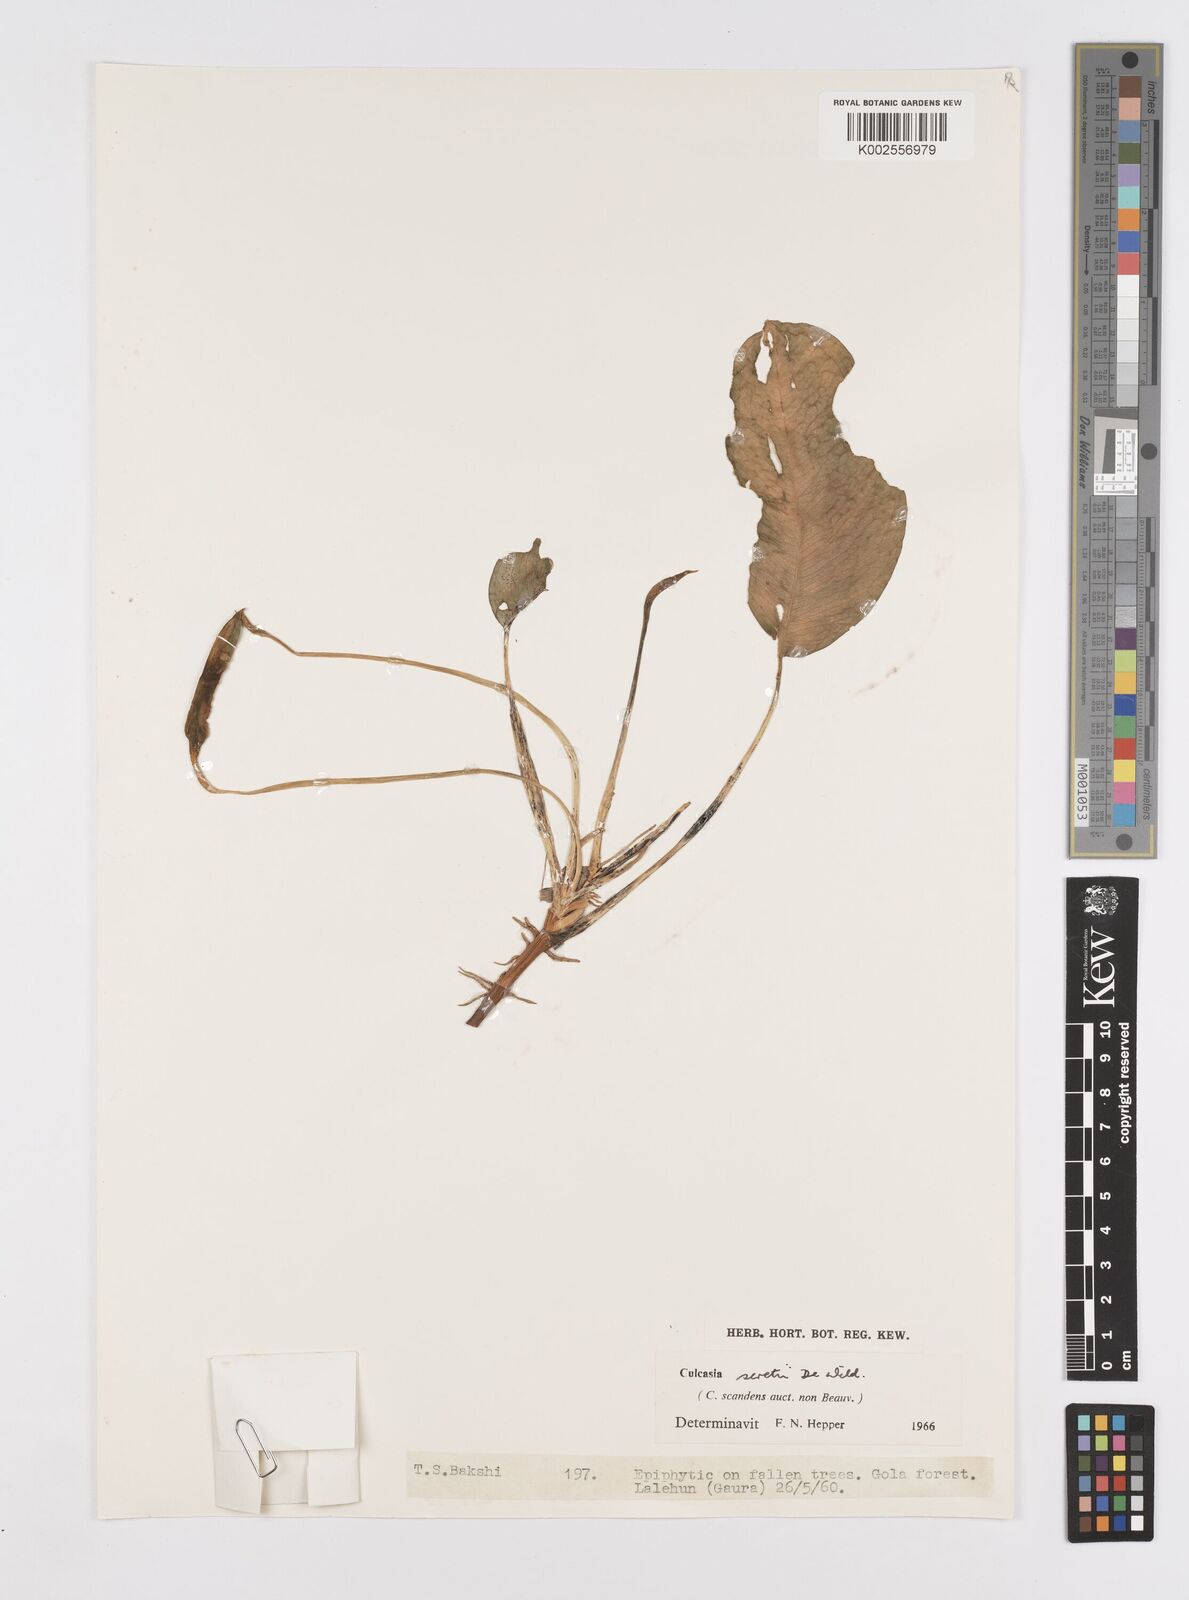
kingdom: Plantae
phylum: Tracheophyta
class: Liliopsida
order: Alismatales
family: Araceae
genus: Culcasia
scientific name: Culcasia seretii
